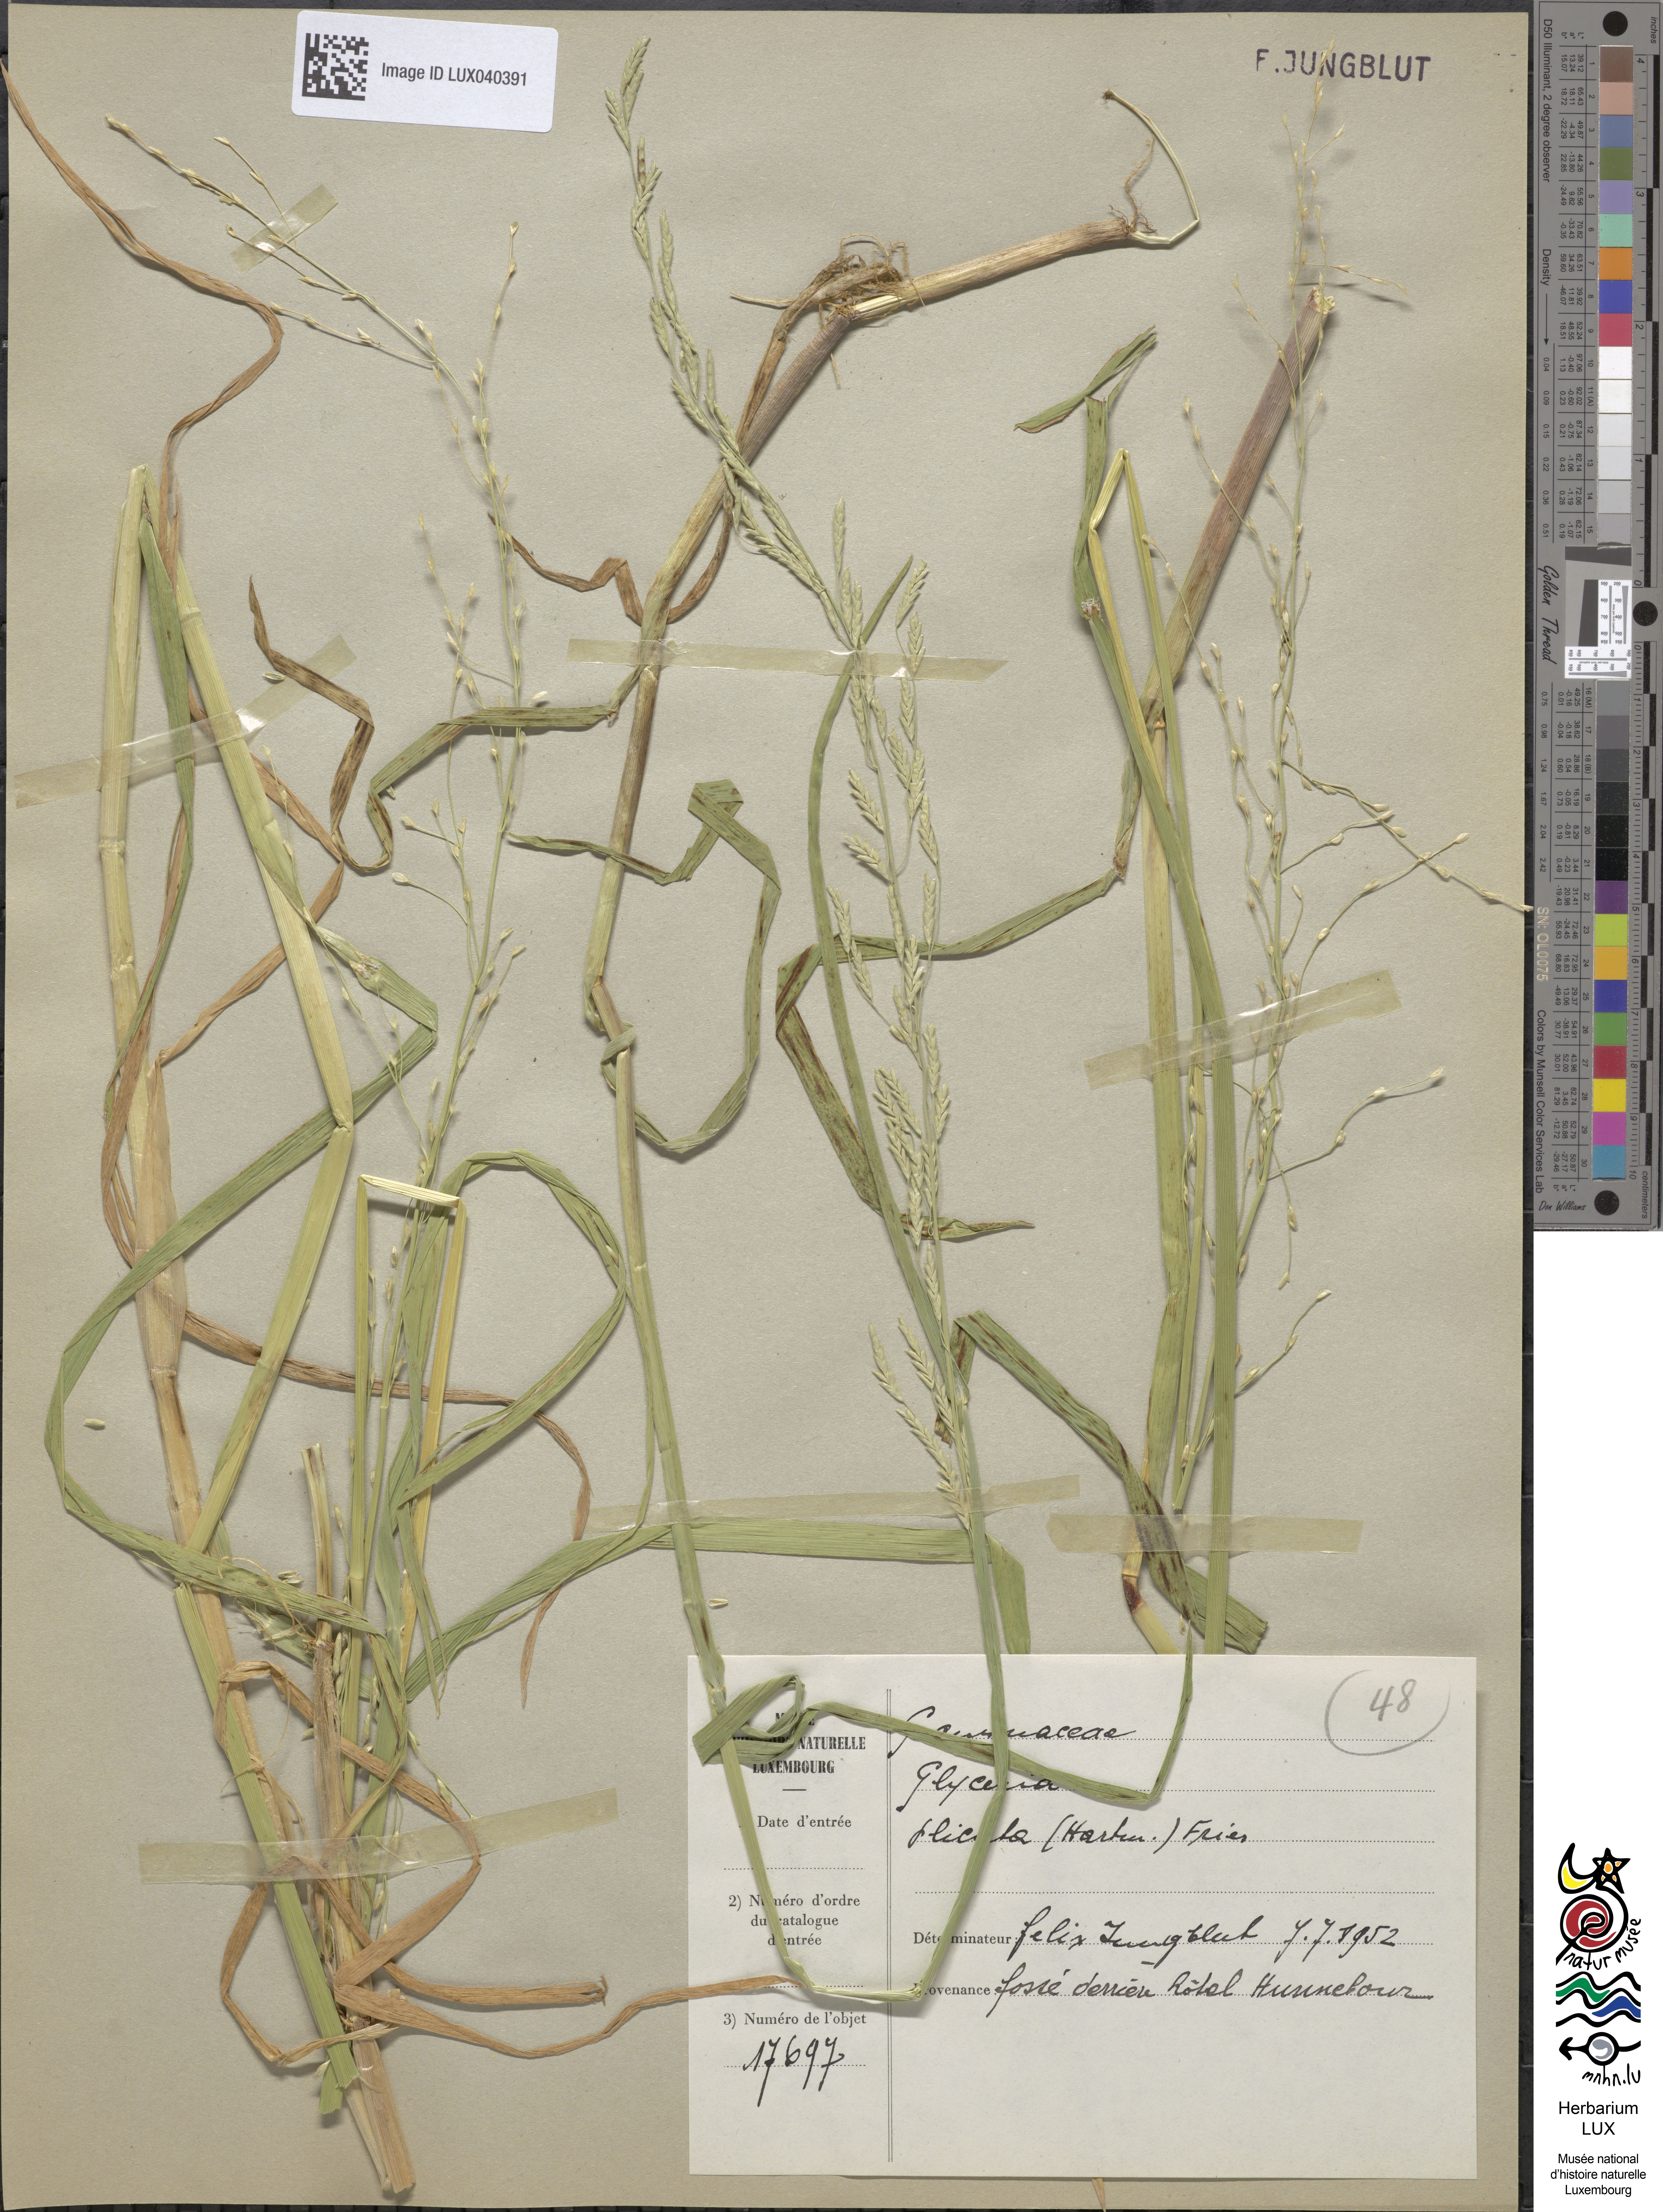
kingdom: Plantae
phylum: Tracheophyta
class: Liliopsida
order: Poales
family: Poaceae
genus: Glyceria
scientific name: Glyceria notata
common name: Plicate sweet-grass
